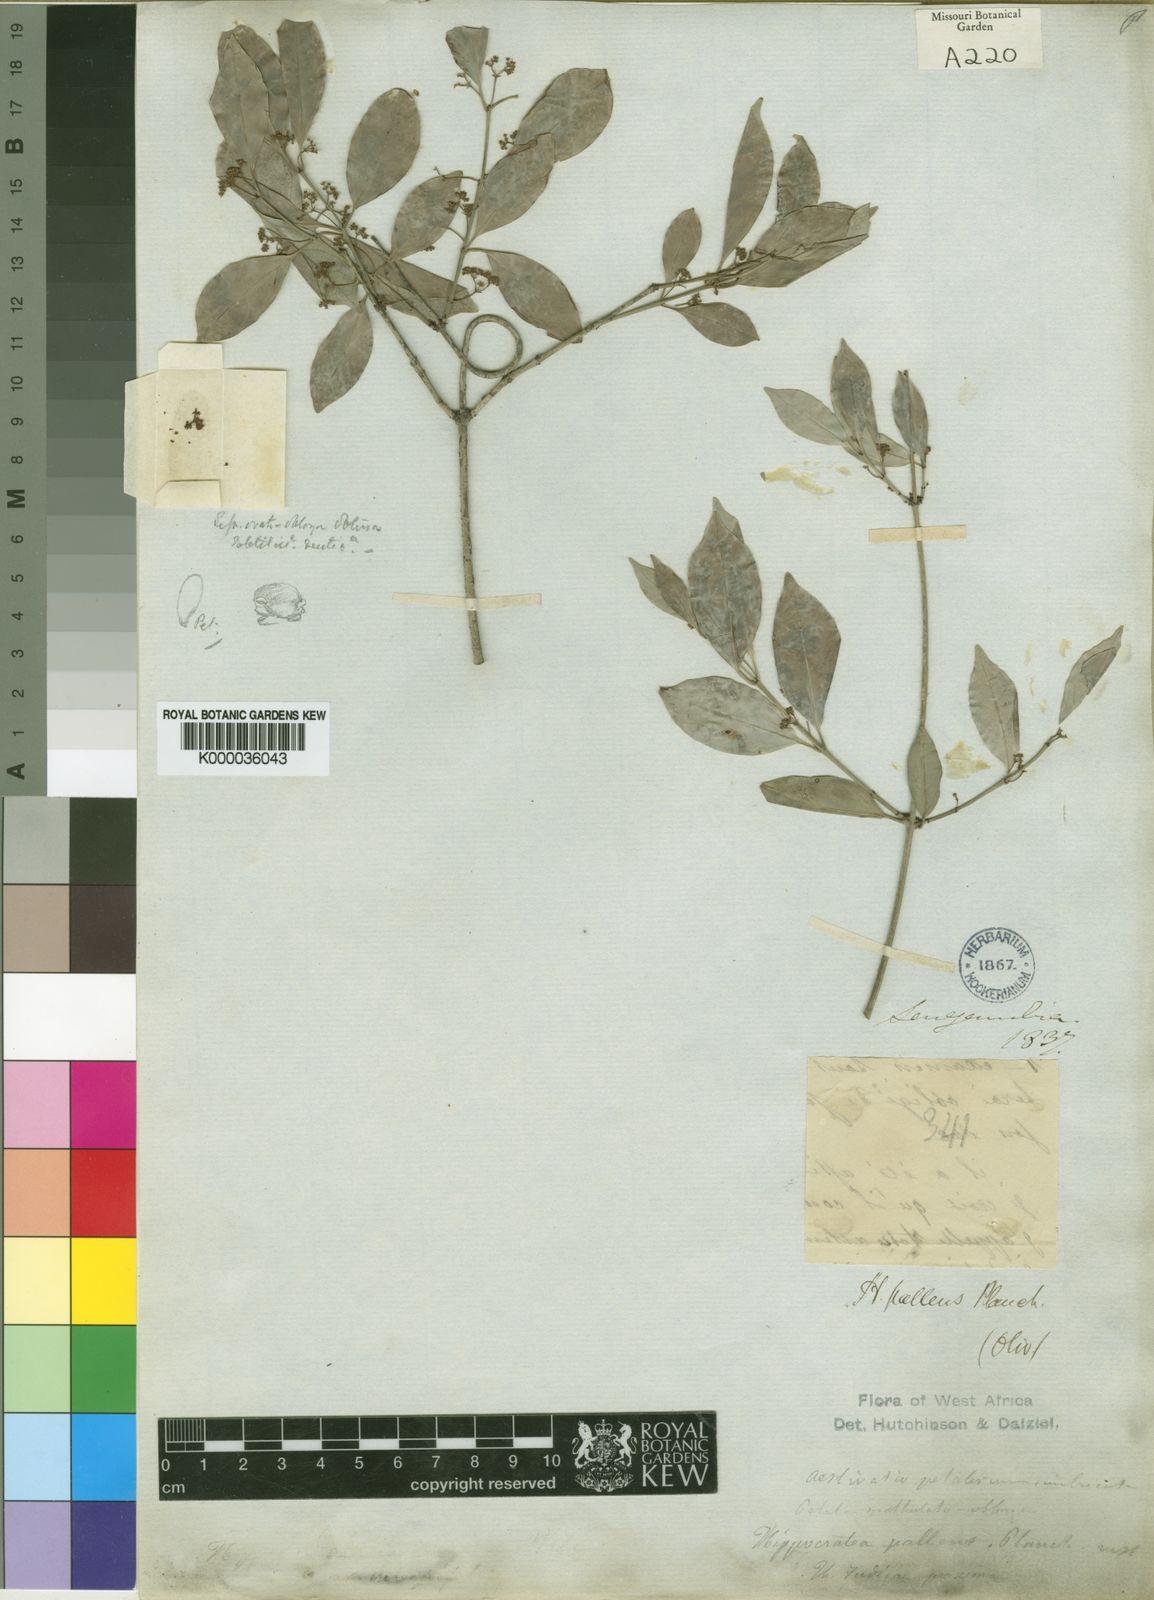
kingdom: Plantae
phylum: Tracheophyta
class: Magnoliopsida
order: Celastrales
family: Celastraceae
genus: Apodostigma
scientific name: Apodostigma pallens
